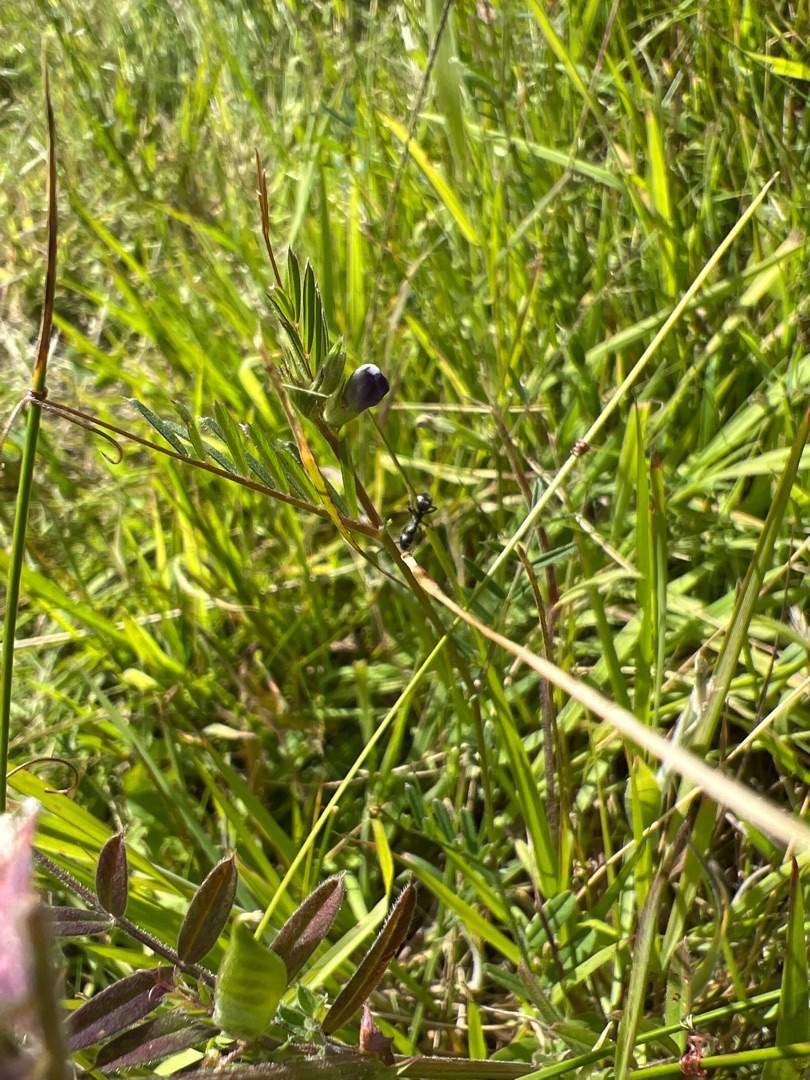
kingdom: Plantae
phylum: Tracheophyta
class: Magnoliopsida
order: Fabales
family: Fabaceae
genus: Vicia
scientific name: Vicia sativa
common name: Smalbladet vikke
